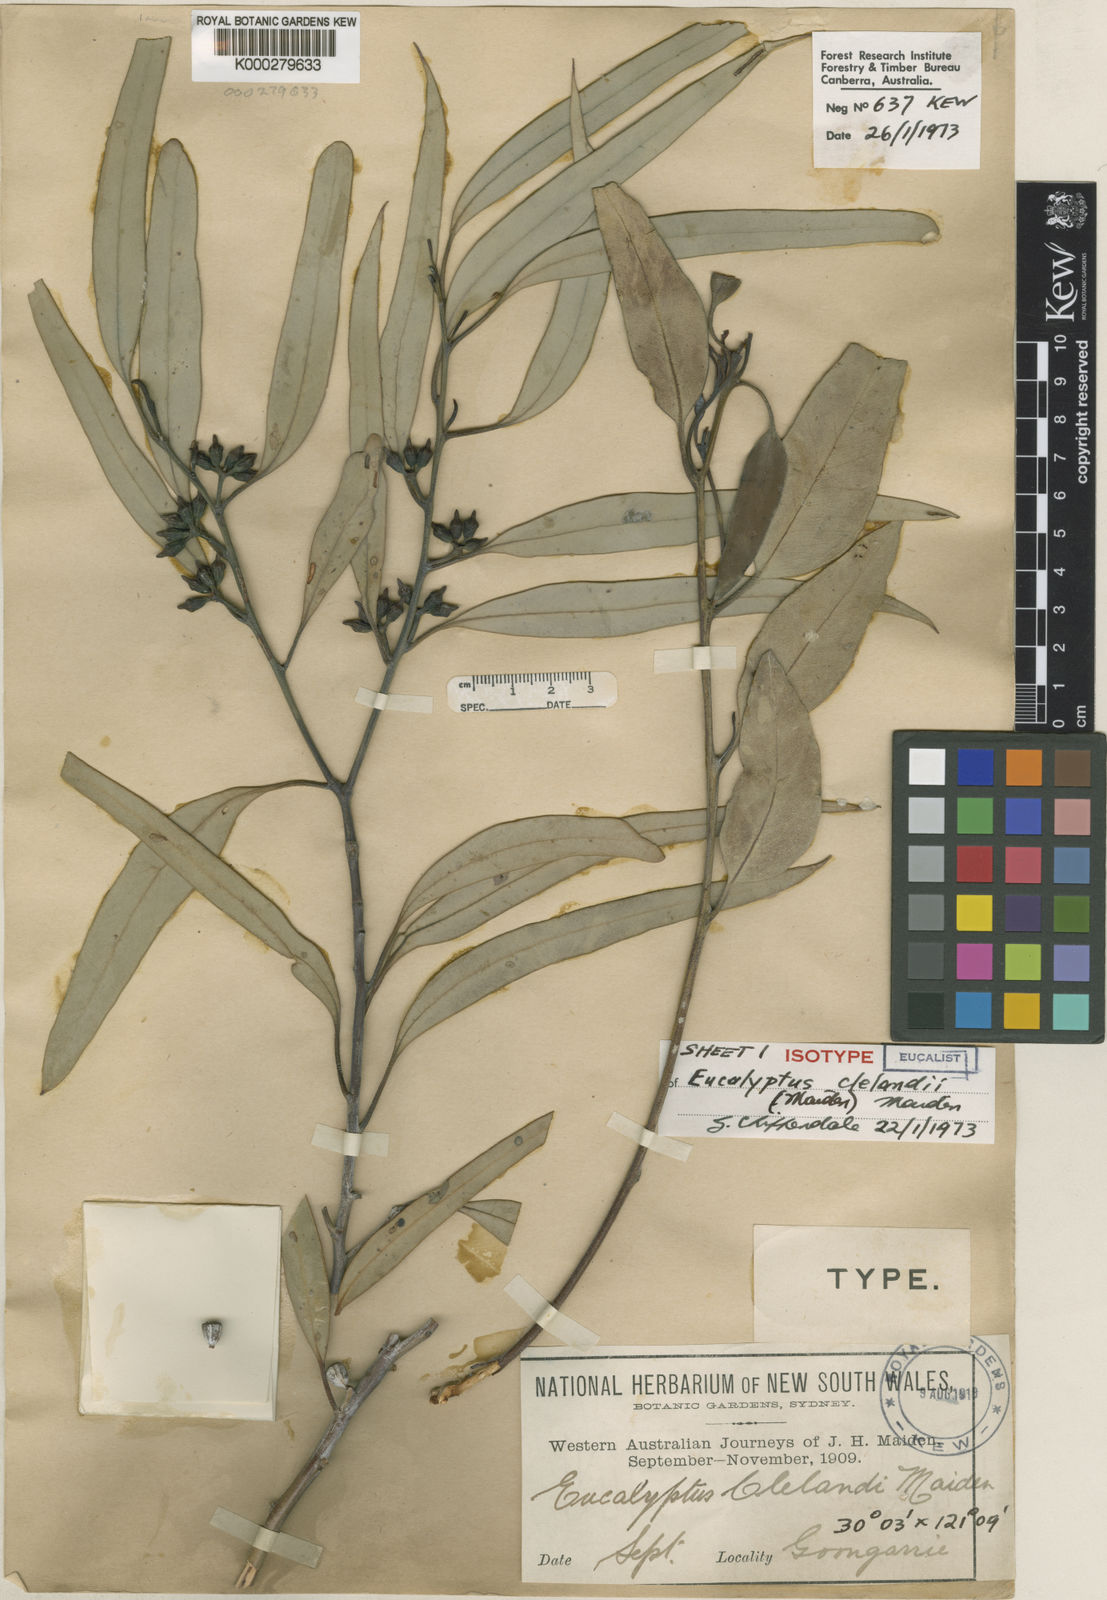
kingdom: Plantae
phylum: Tracheophyta
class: Magnoliopsida
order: Myrtales
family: Myrtaceae
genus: Eucalyptus
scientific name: Eucalyptus clelandiorum
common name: Cleland's blackbutt
